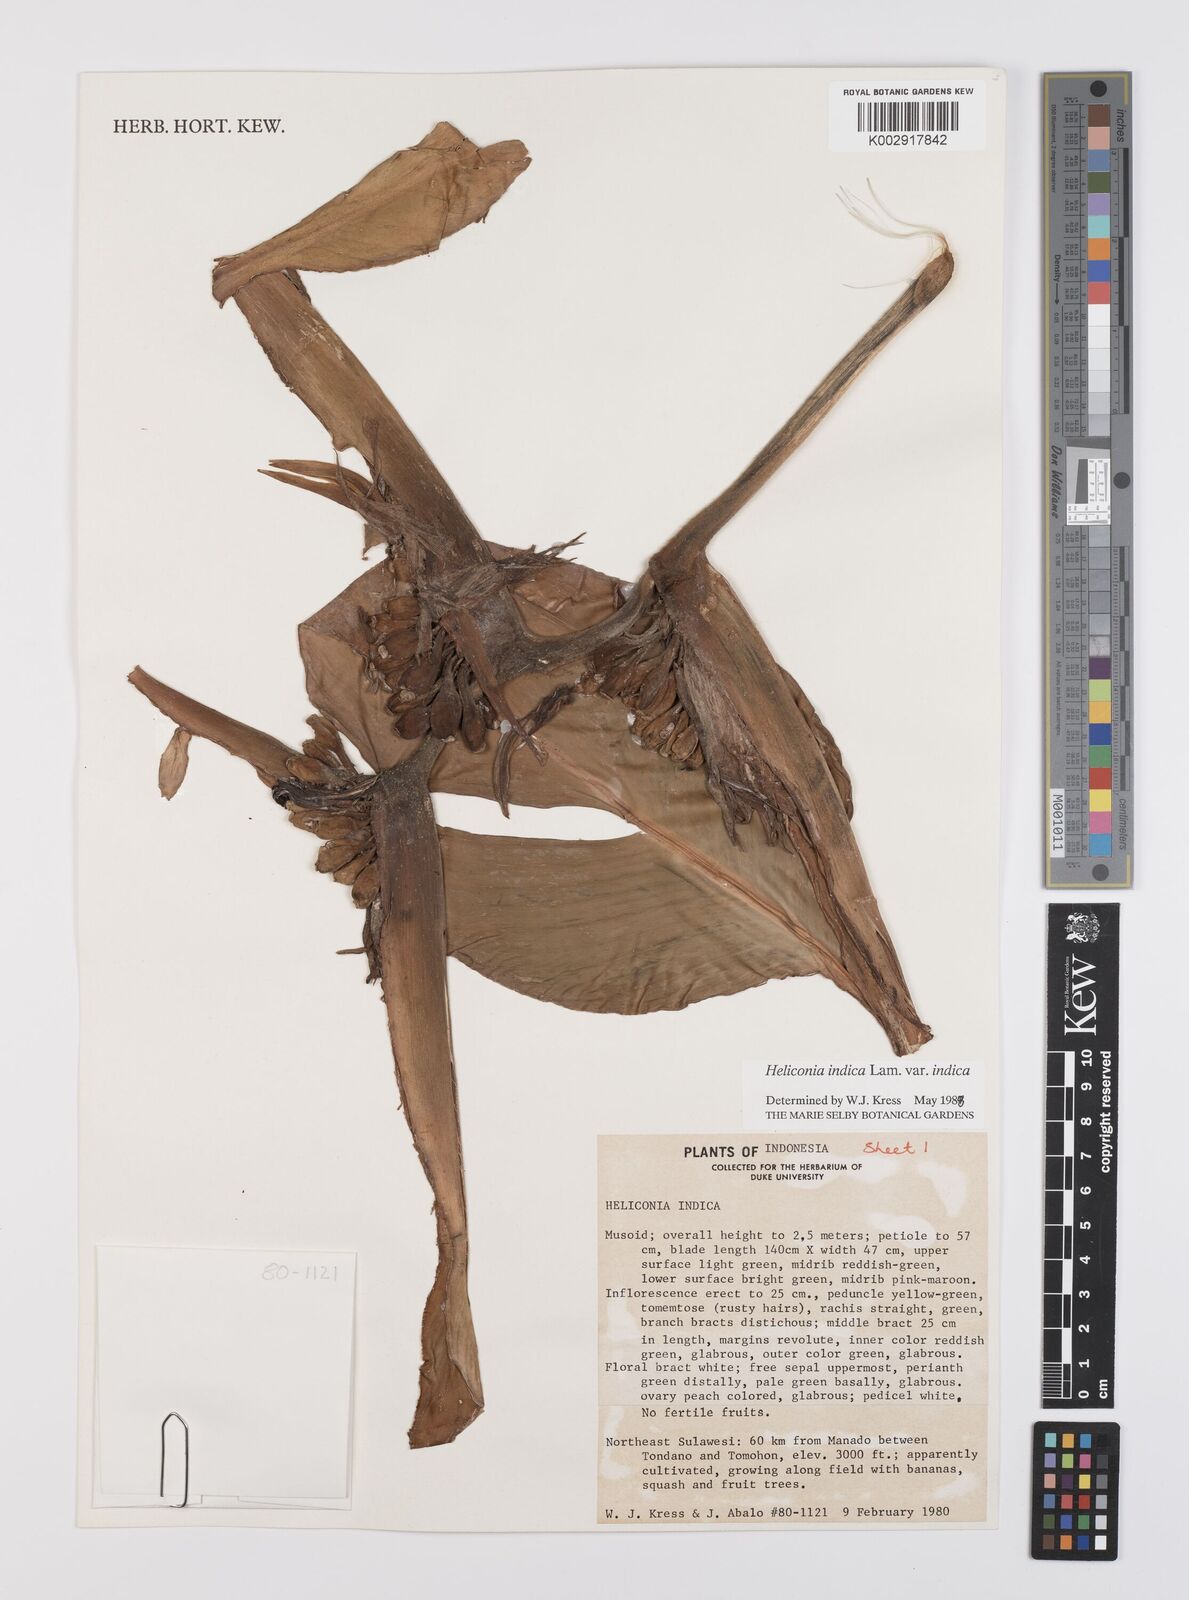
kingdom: Plantae
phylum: Tracheophyta
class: Liliopsida
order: Zingiberales
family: Heliconiaceae
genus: Heliconia
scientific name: Heliconia indica
